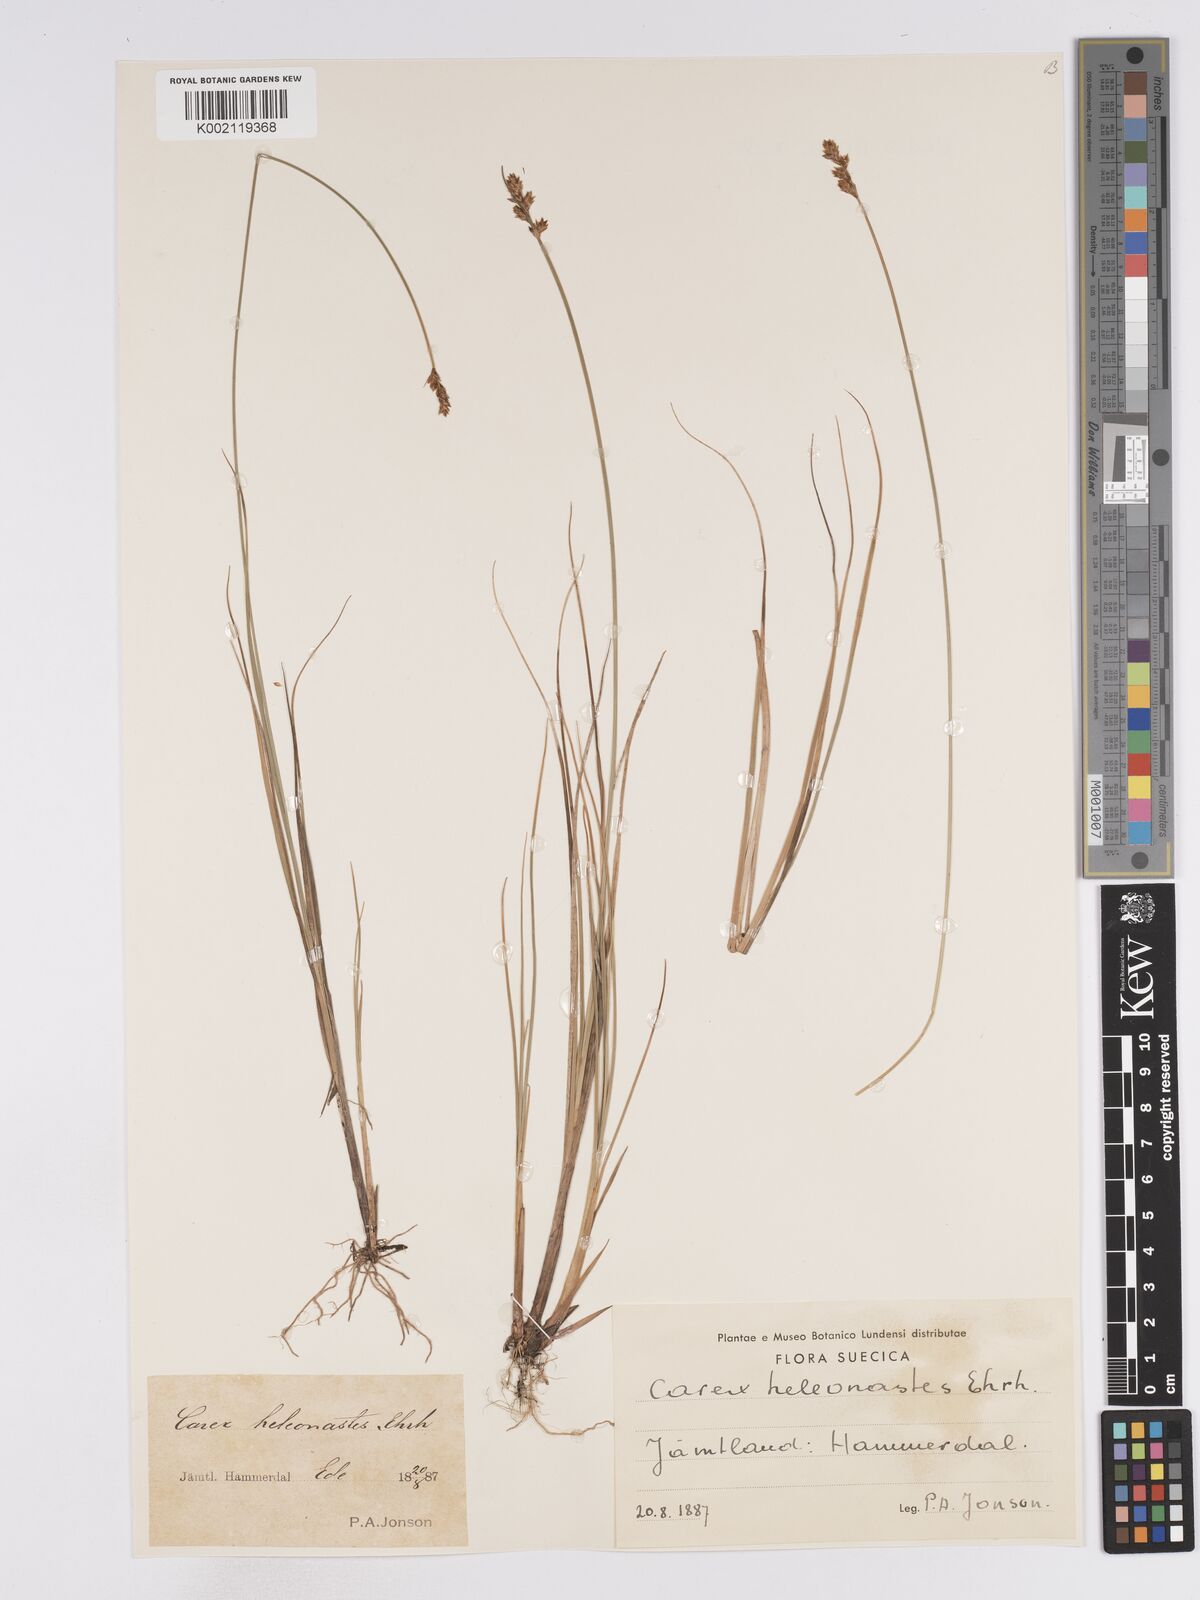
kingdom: Plantae
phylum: Tracheophyta
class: Liliopsida
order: Poales
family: Cyperaceae
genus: Carex
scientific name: Carex heleonastes
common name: Hudson bay sedge
